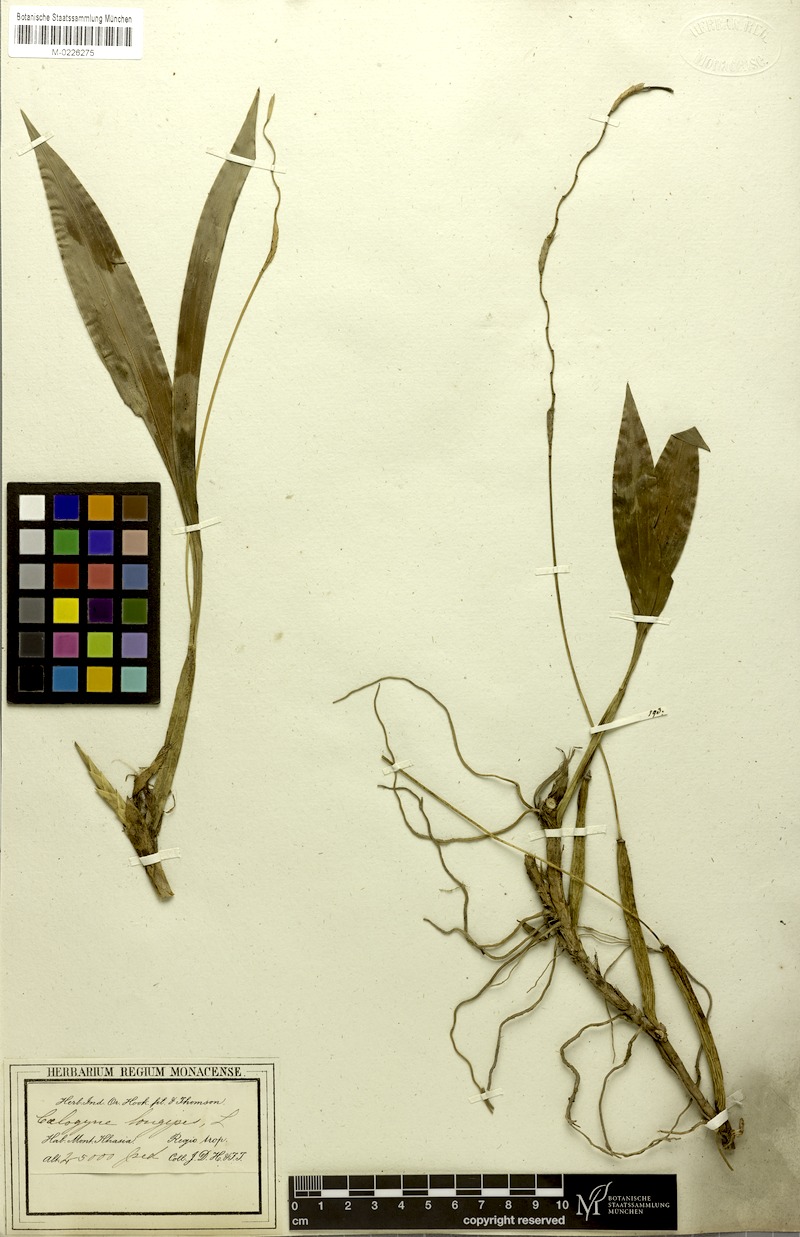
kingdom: Plantae
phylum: Tracheophyta
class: Liliopsida
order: Asparagales
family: Orchidaceae
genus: Coelogyne
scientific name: Coelogyne longipes
